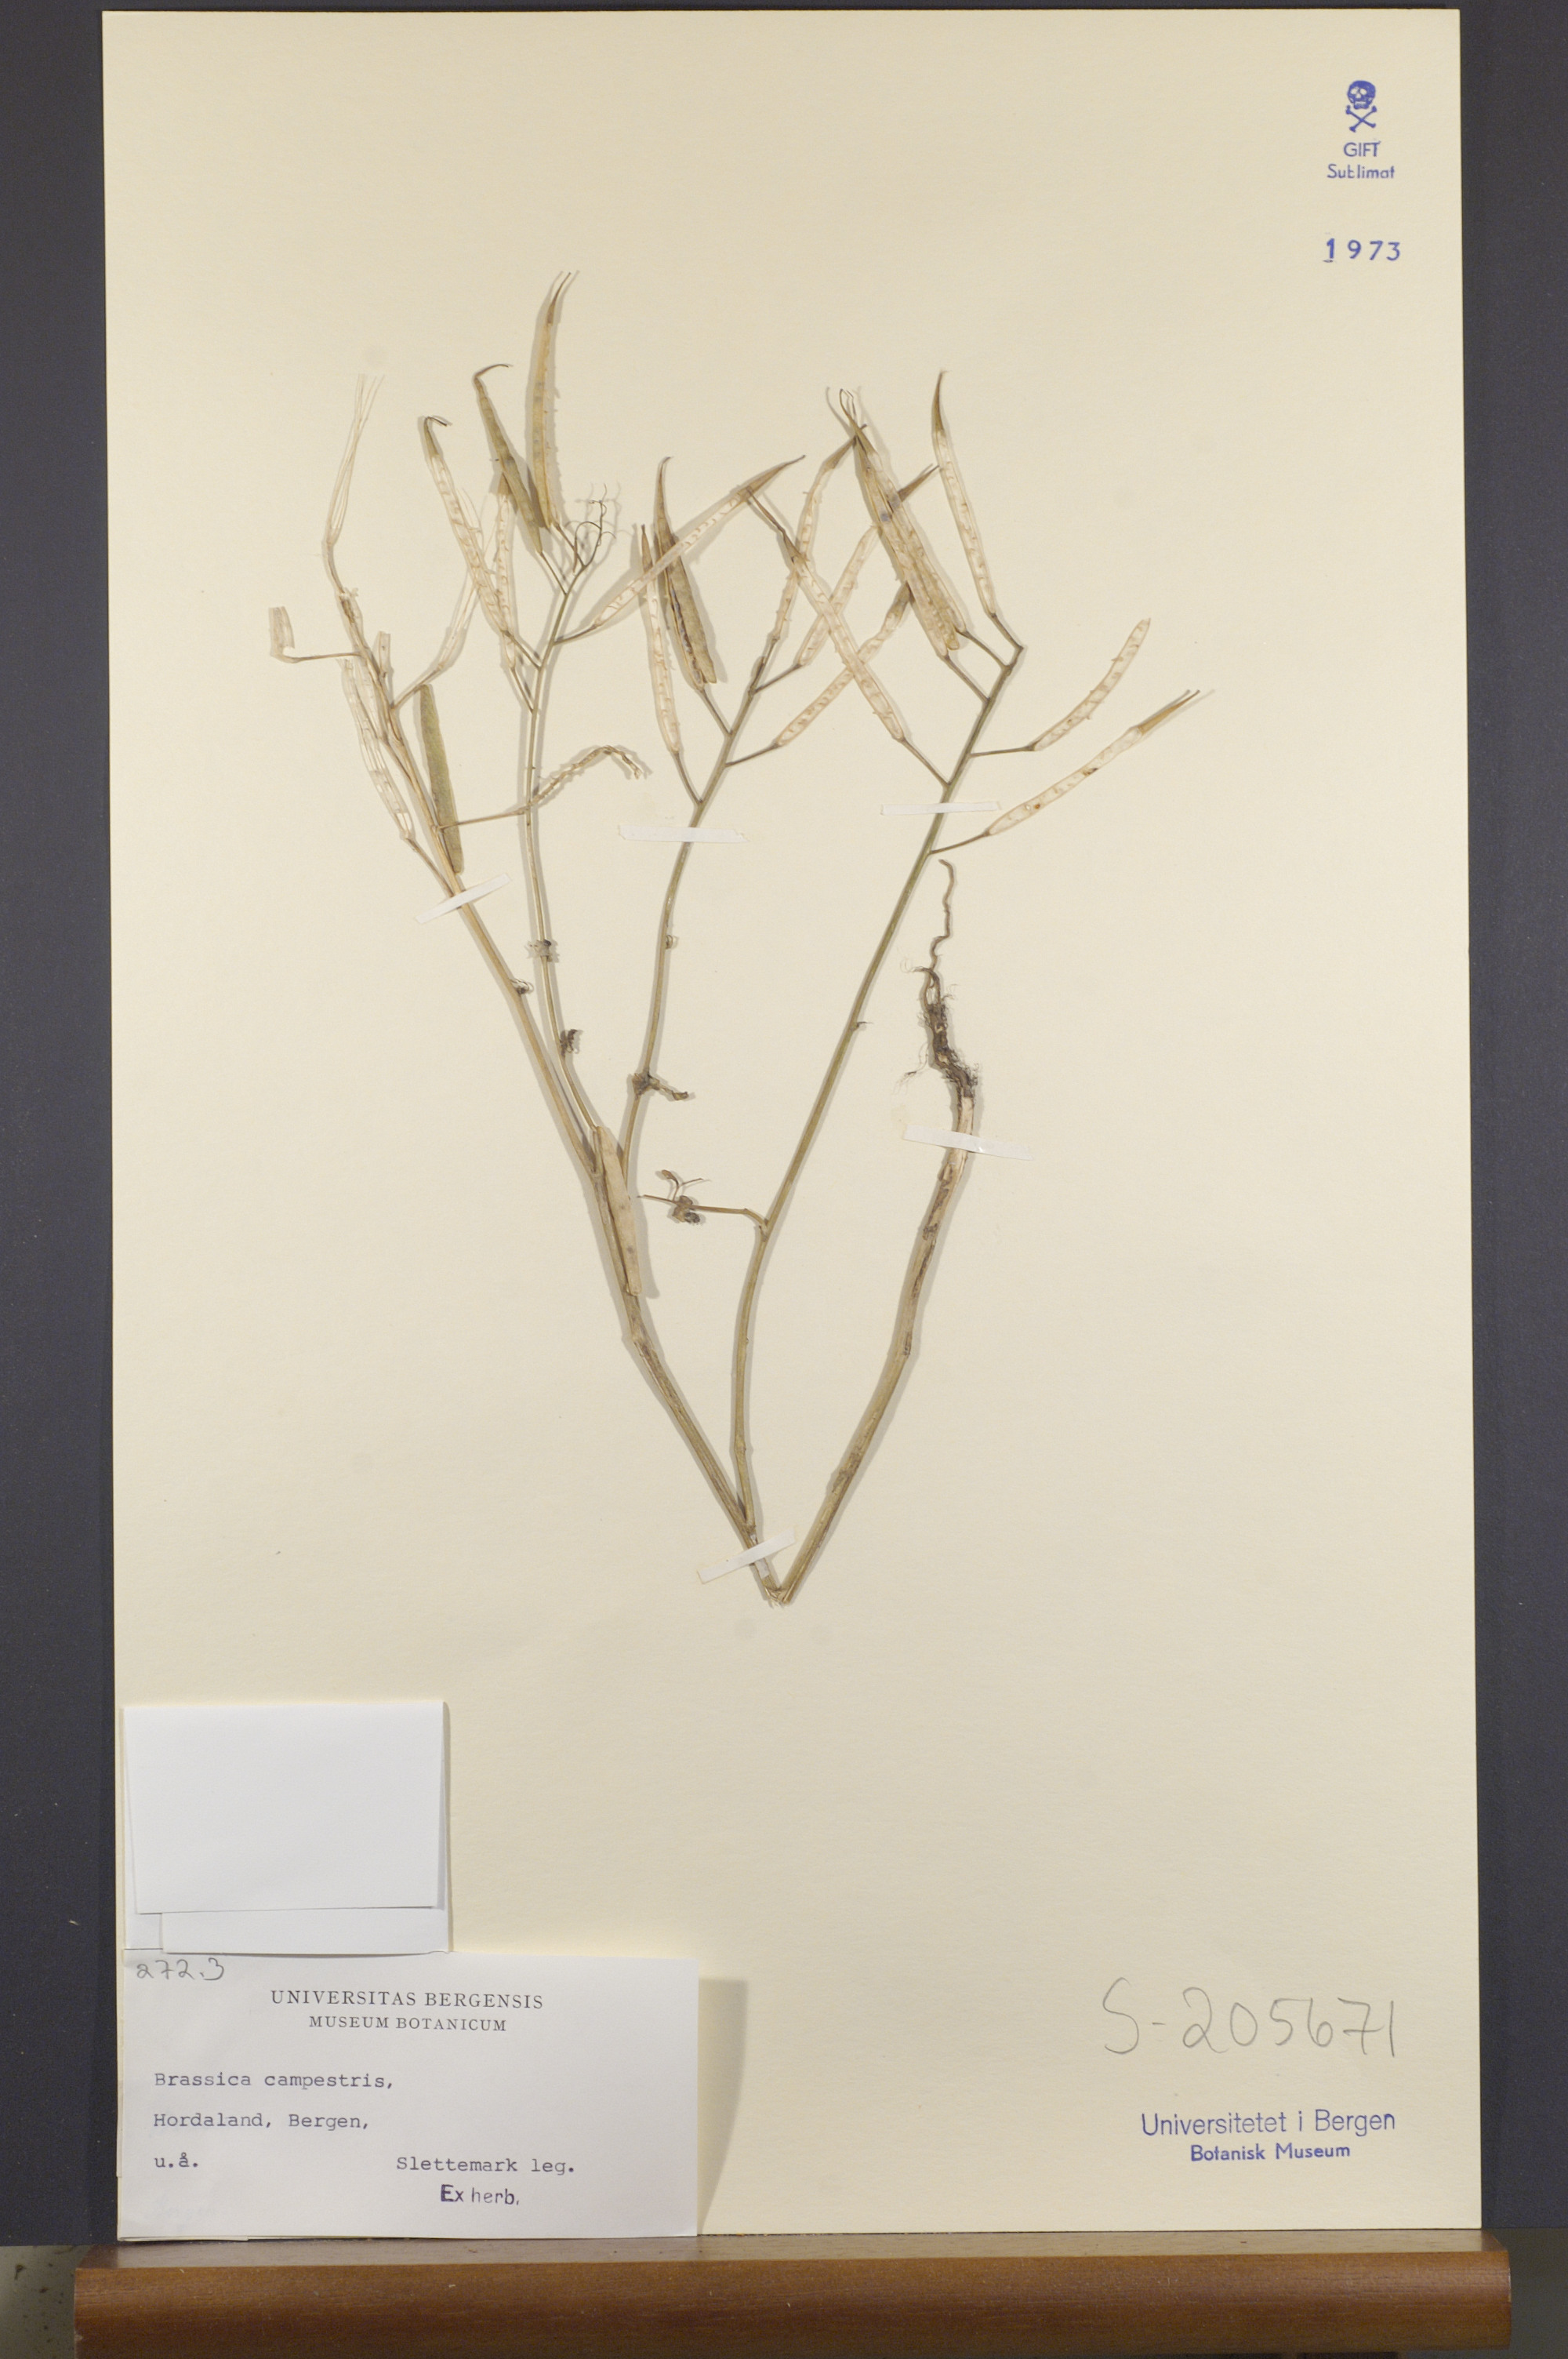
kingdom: Plantae
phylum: Tracheophyta
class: Magnoliopsida
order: Brassicales
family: Brassicaceae
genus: Brassica
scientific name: Brassica rapa
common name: Field mustard
